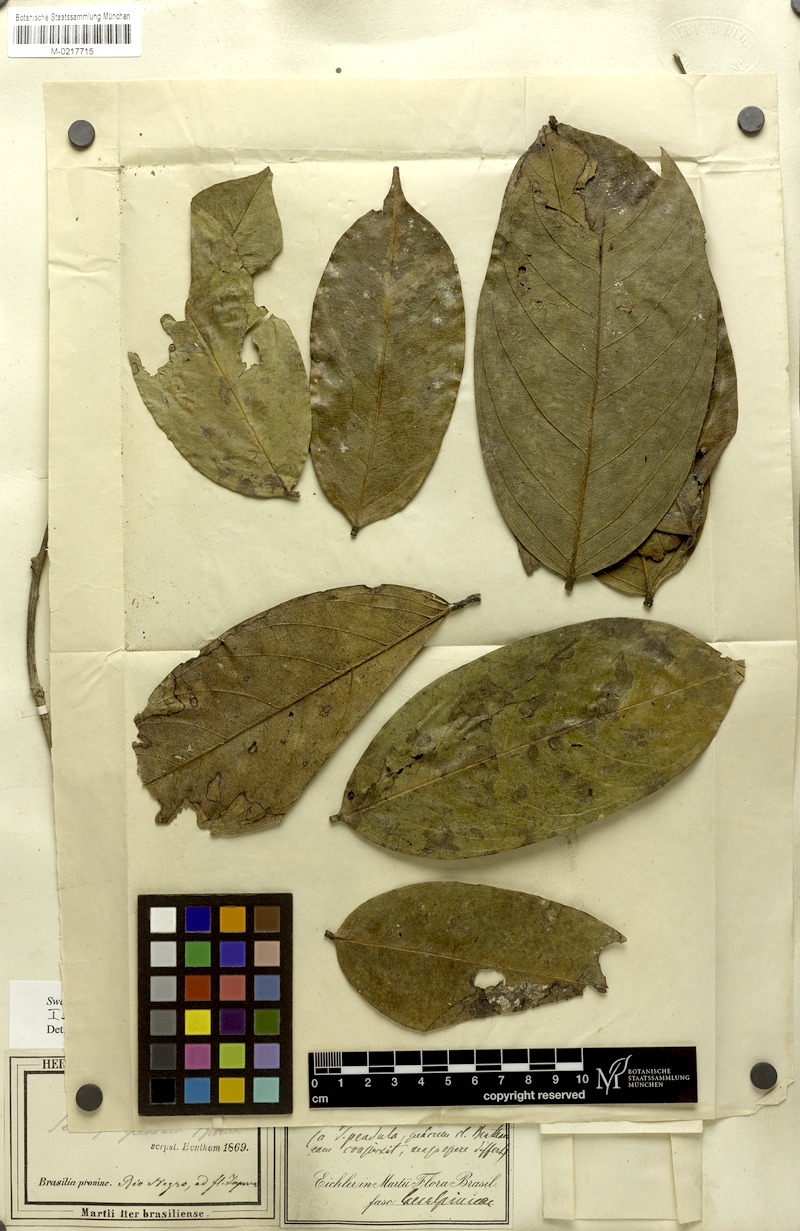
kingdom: Plantae
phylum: Tracheophyta
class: Magnoliopsida
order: Fabales
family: Fabaceae
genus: Swartzia
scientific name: Swartzia martii
